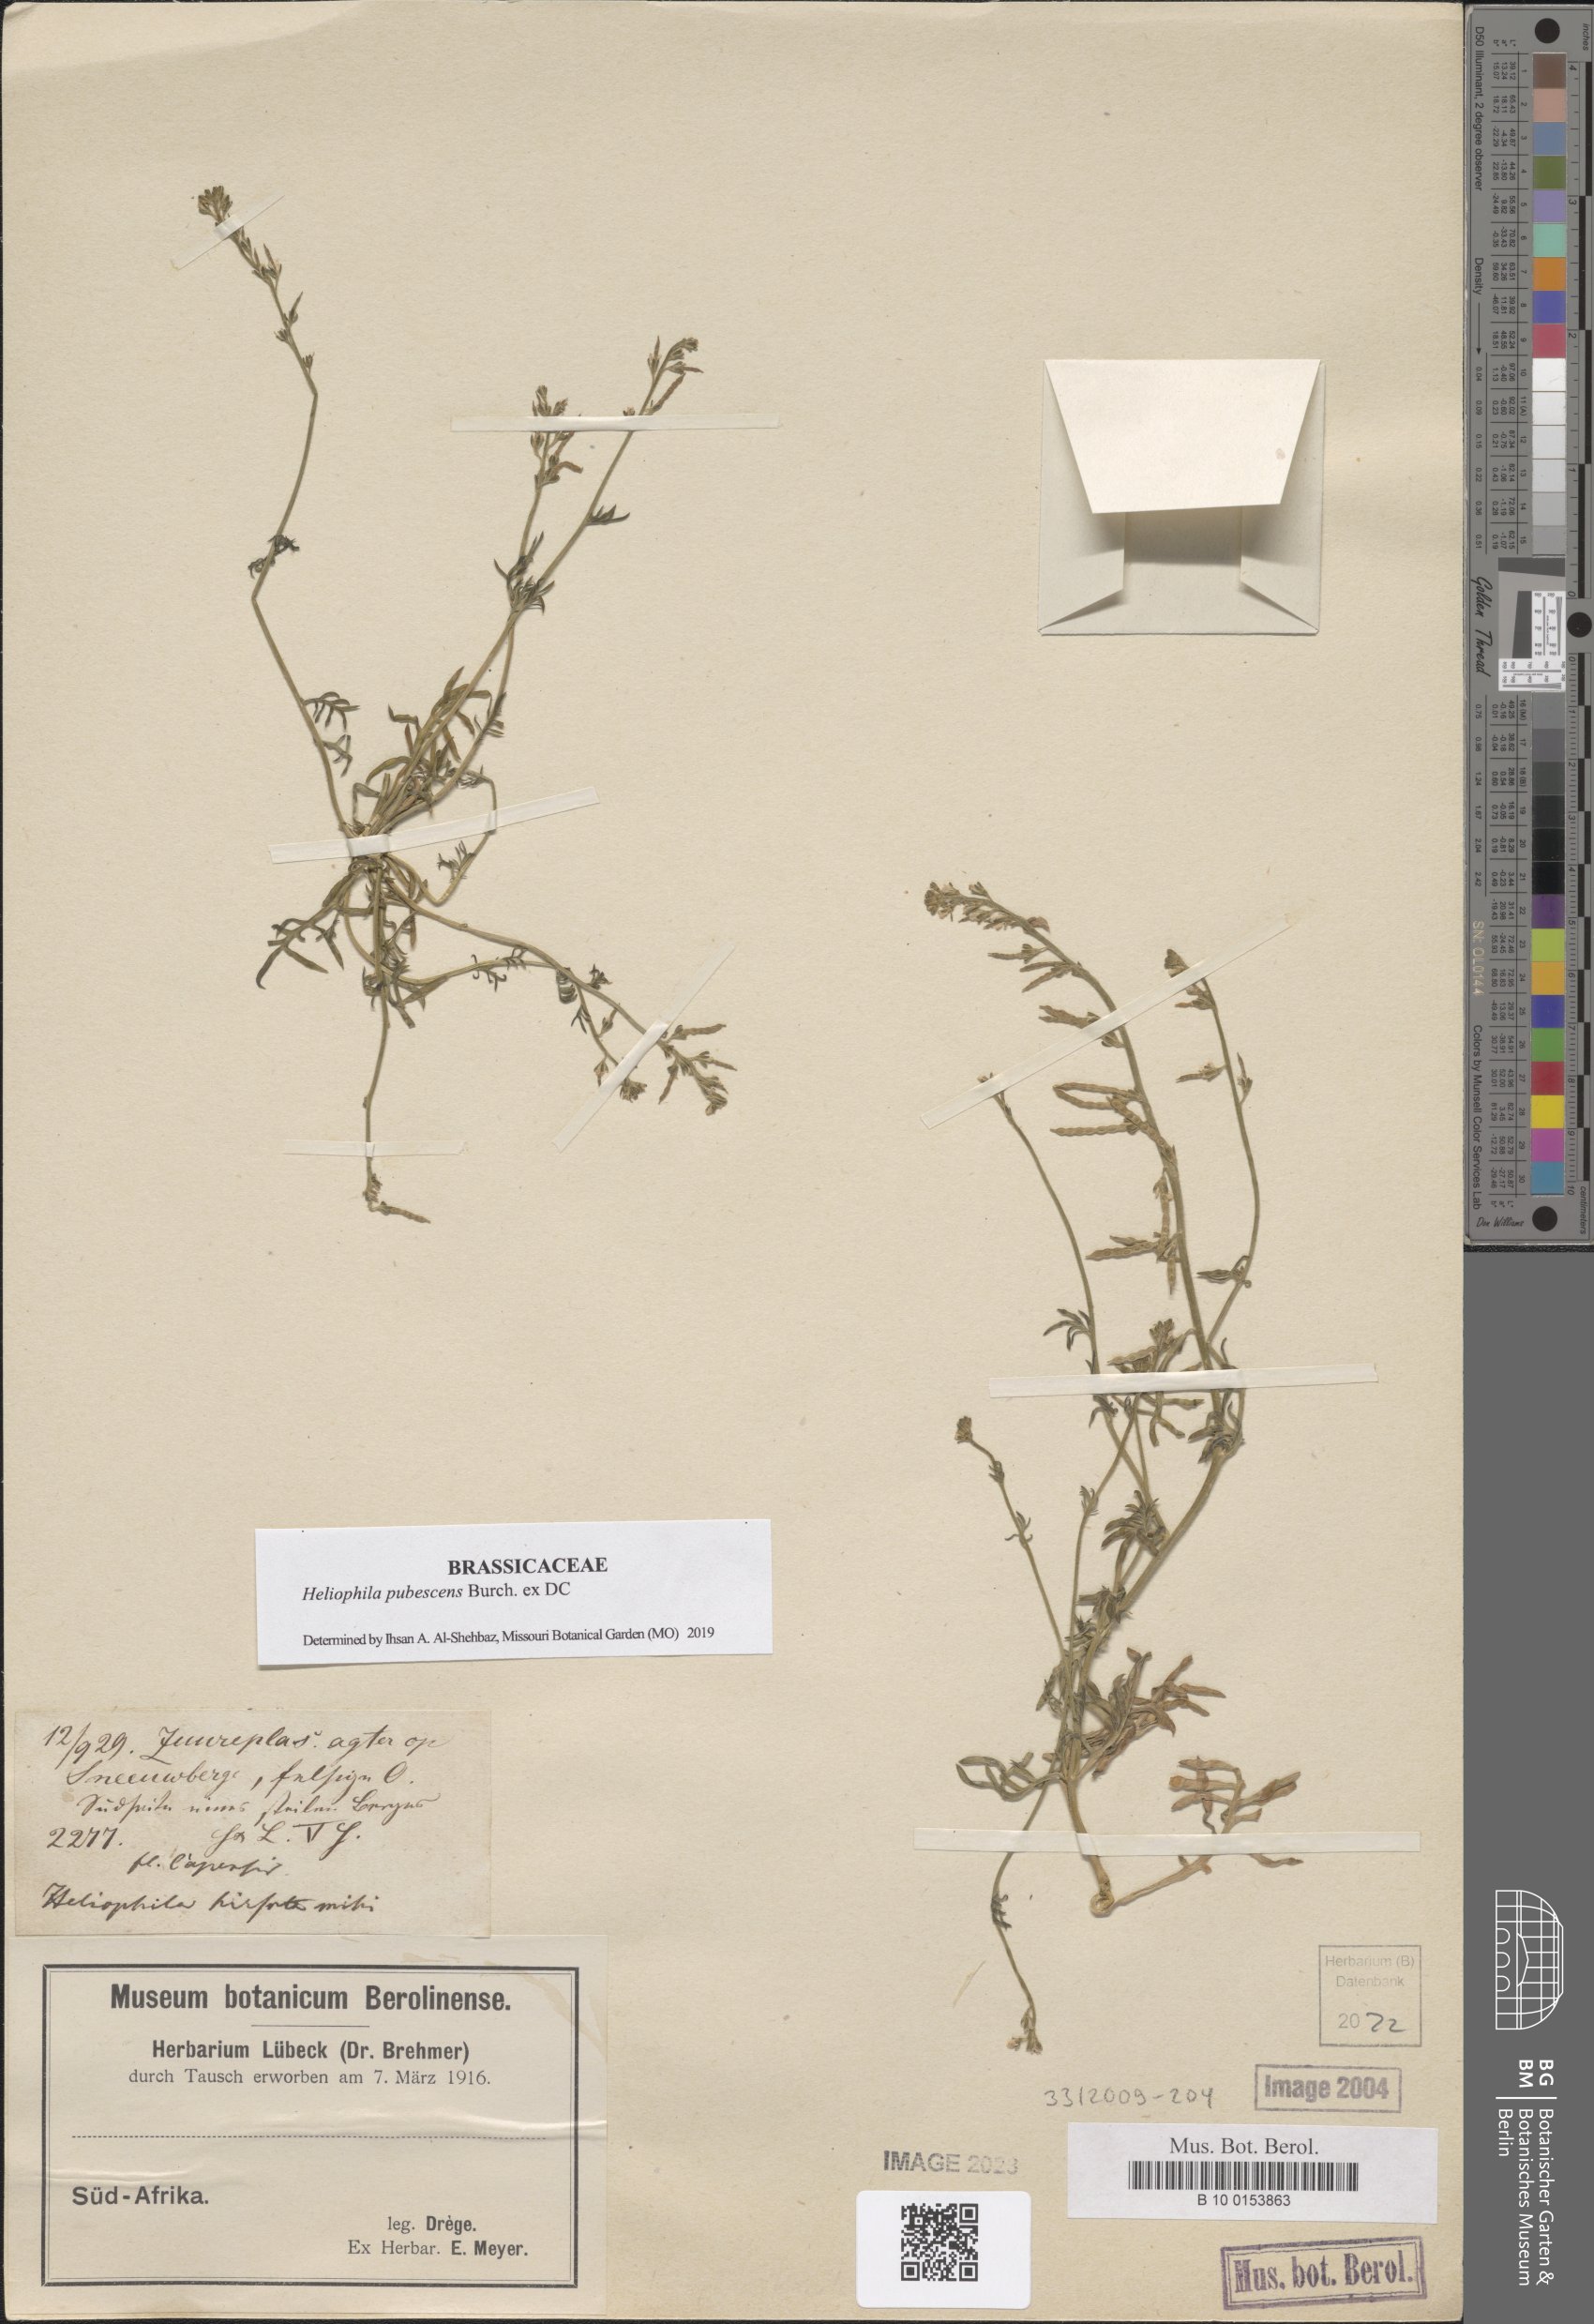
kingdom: Plantae
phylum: Tracheophyta
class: Magnoliopsida
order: Brassicales
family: Brassicaceae
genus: Heliophila
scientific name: Heliophila pubescens
